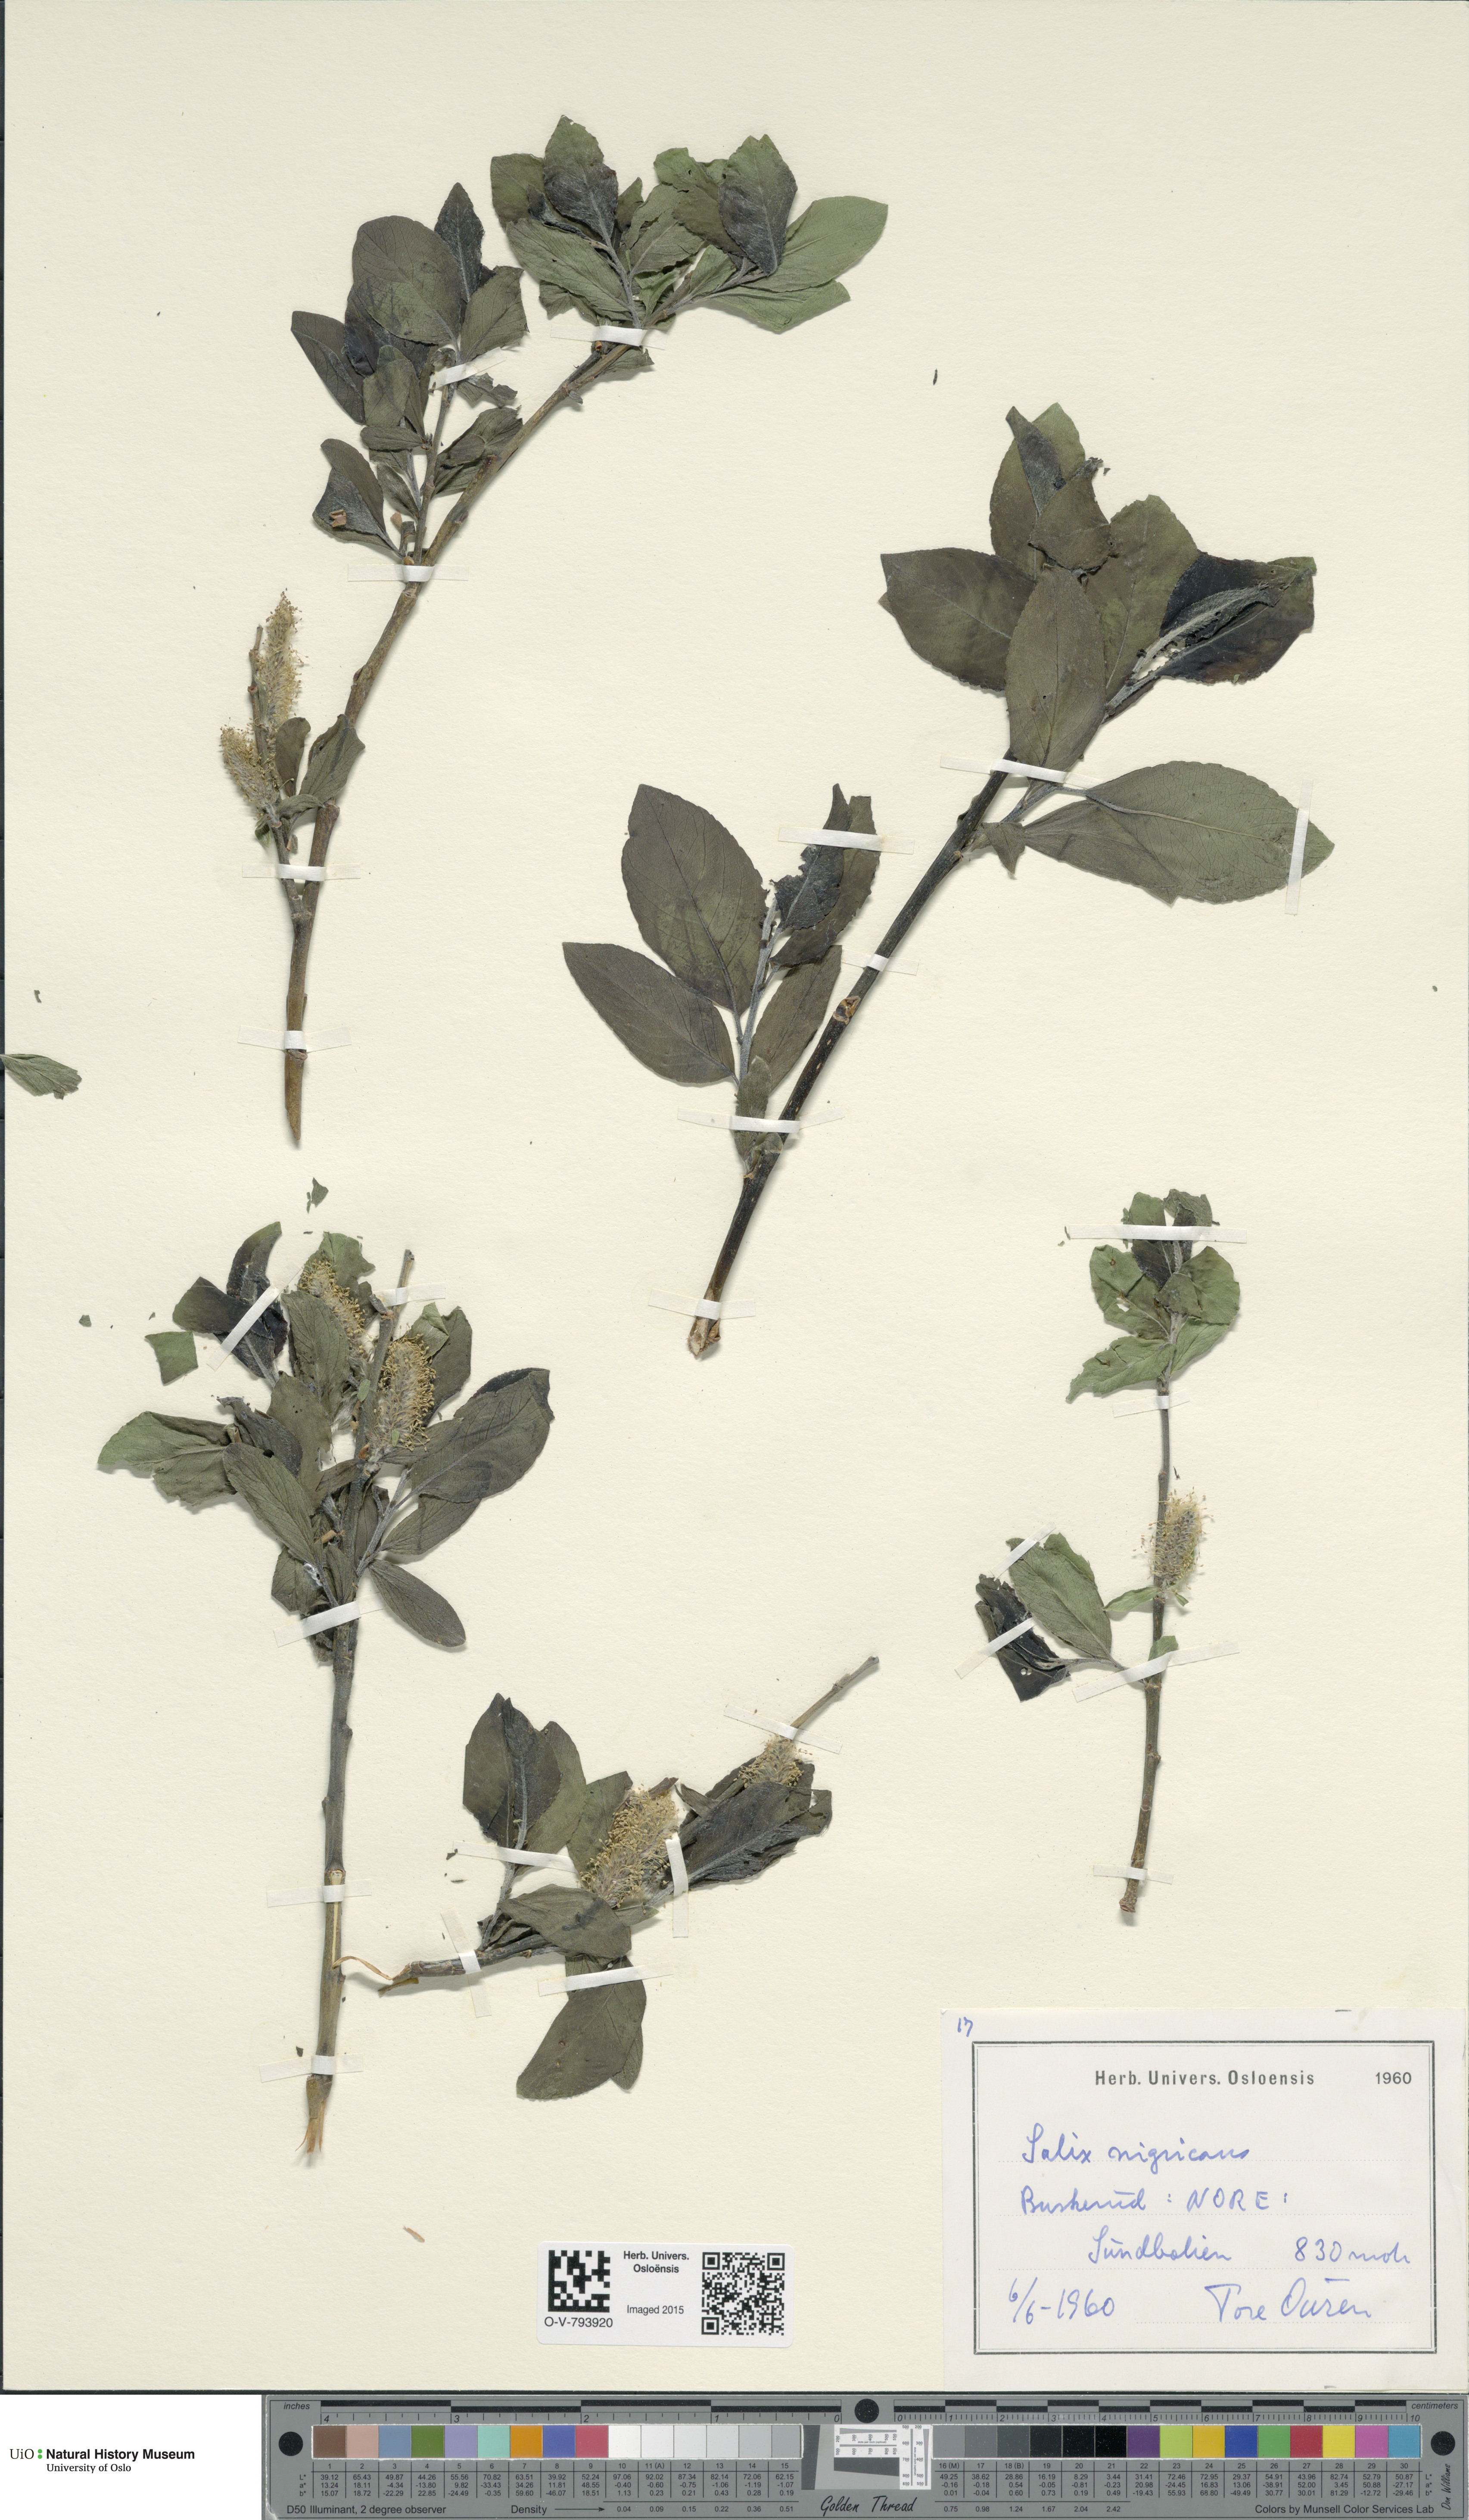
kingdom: Plantae
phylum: Tracheophyta
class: Magnoliopsida
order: Malpighiales
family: Salicaceae
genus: Salix
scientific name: Salix myrsinifolia
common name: Dark-leaved willow
